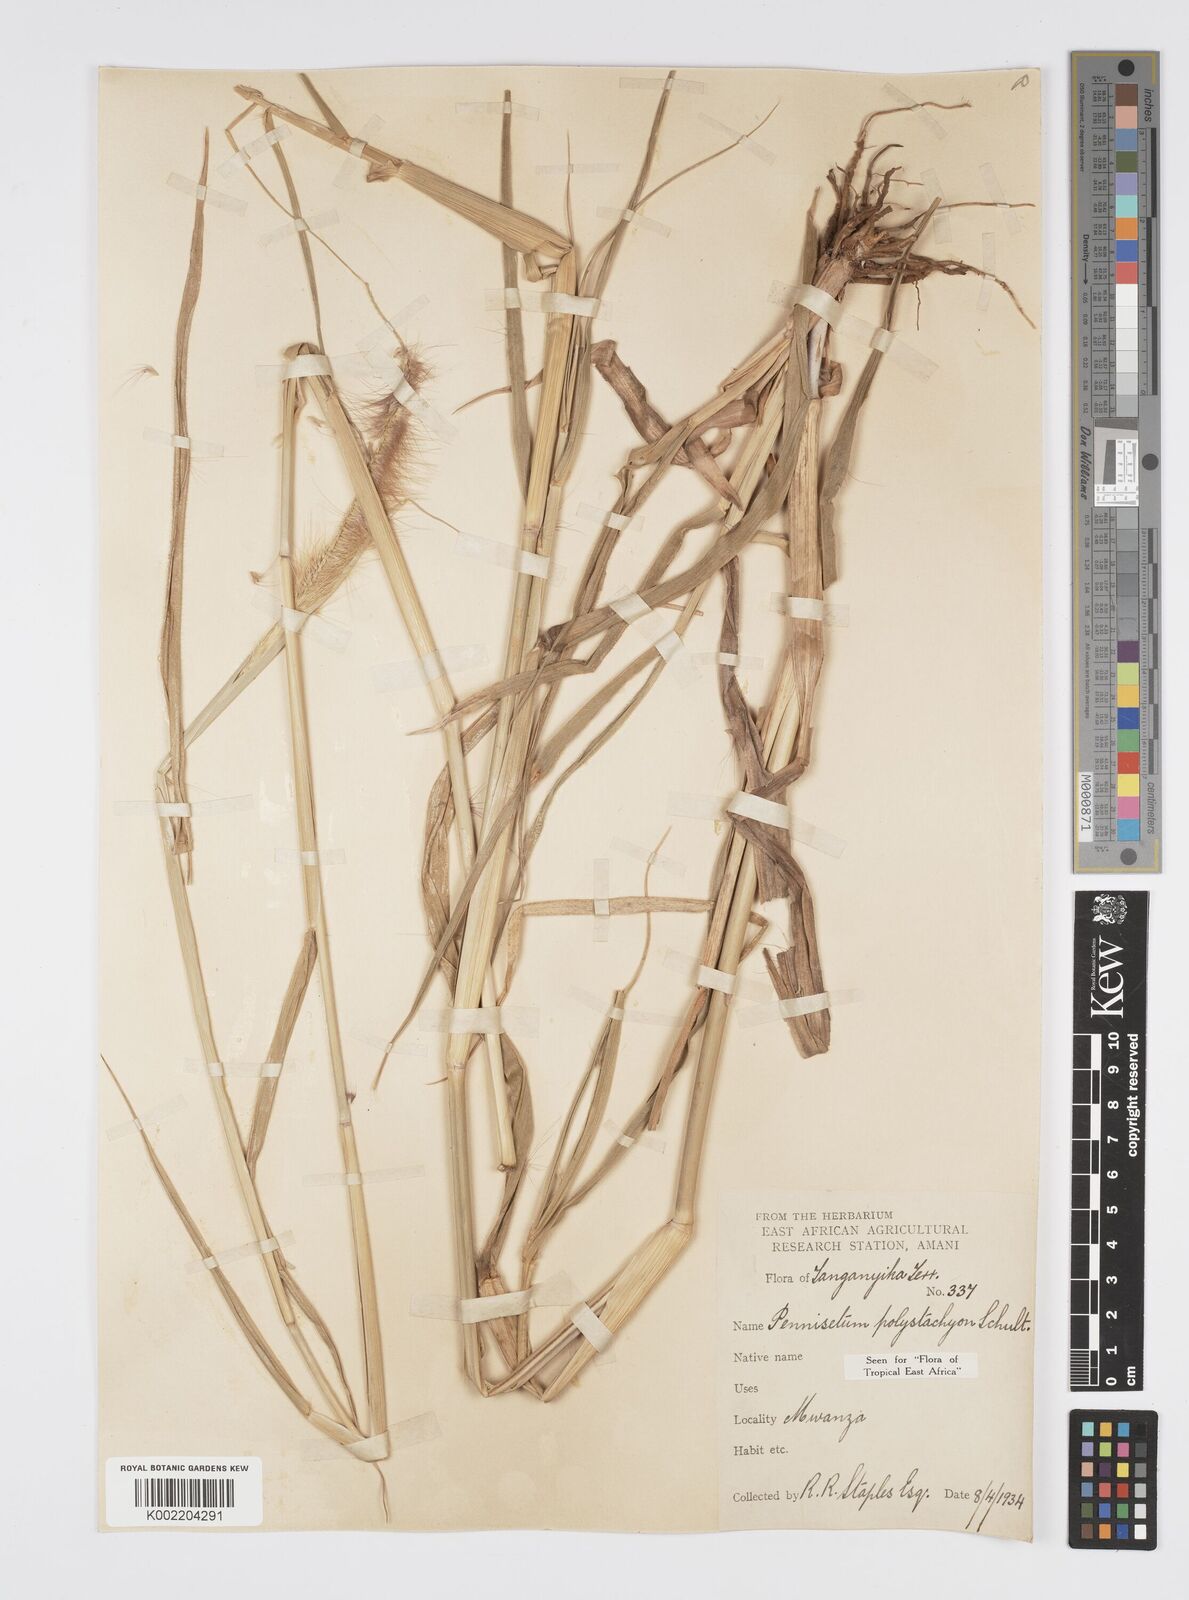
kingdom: Plantae
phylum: Tracheophyta
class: Liliopsida
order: Poales
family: Poaceae
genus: Setaria
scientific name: Setaria parviflora
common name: Knotroot bristle-grass
